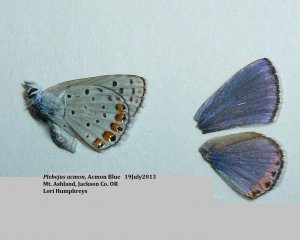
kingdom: Animalia
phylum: Arthropoda
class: Insecta
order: Lepidoptera
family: Lycaenidae
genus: Plebejus
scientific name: Plebejus acmon
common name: Acmon Blue
